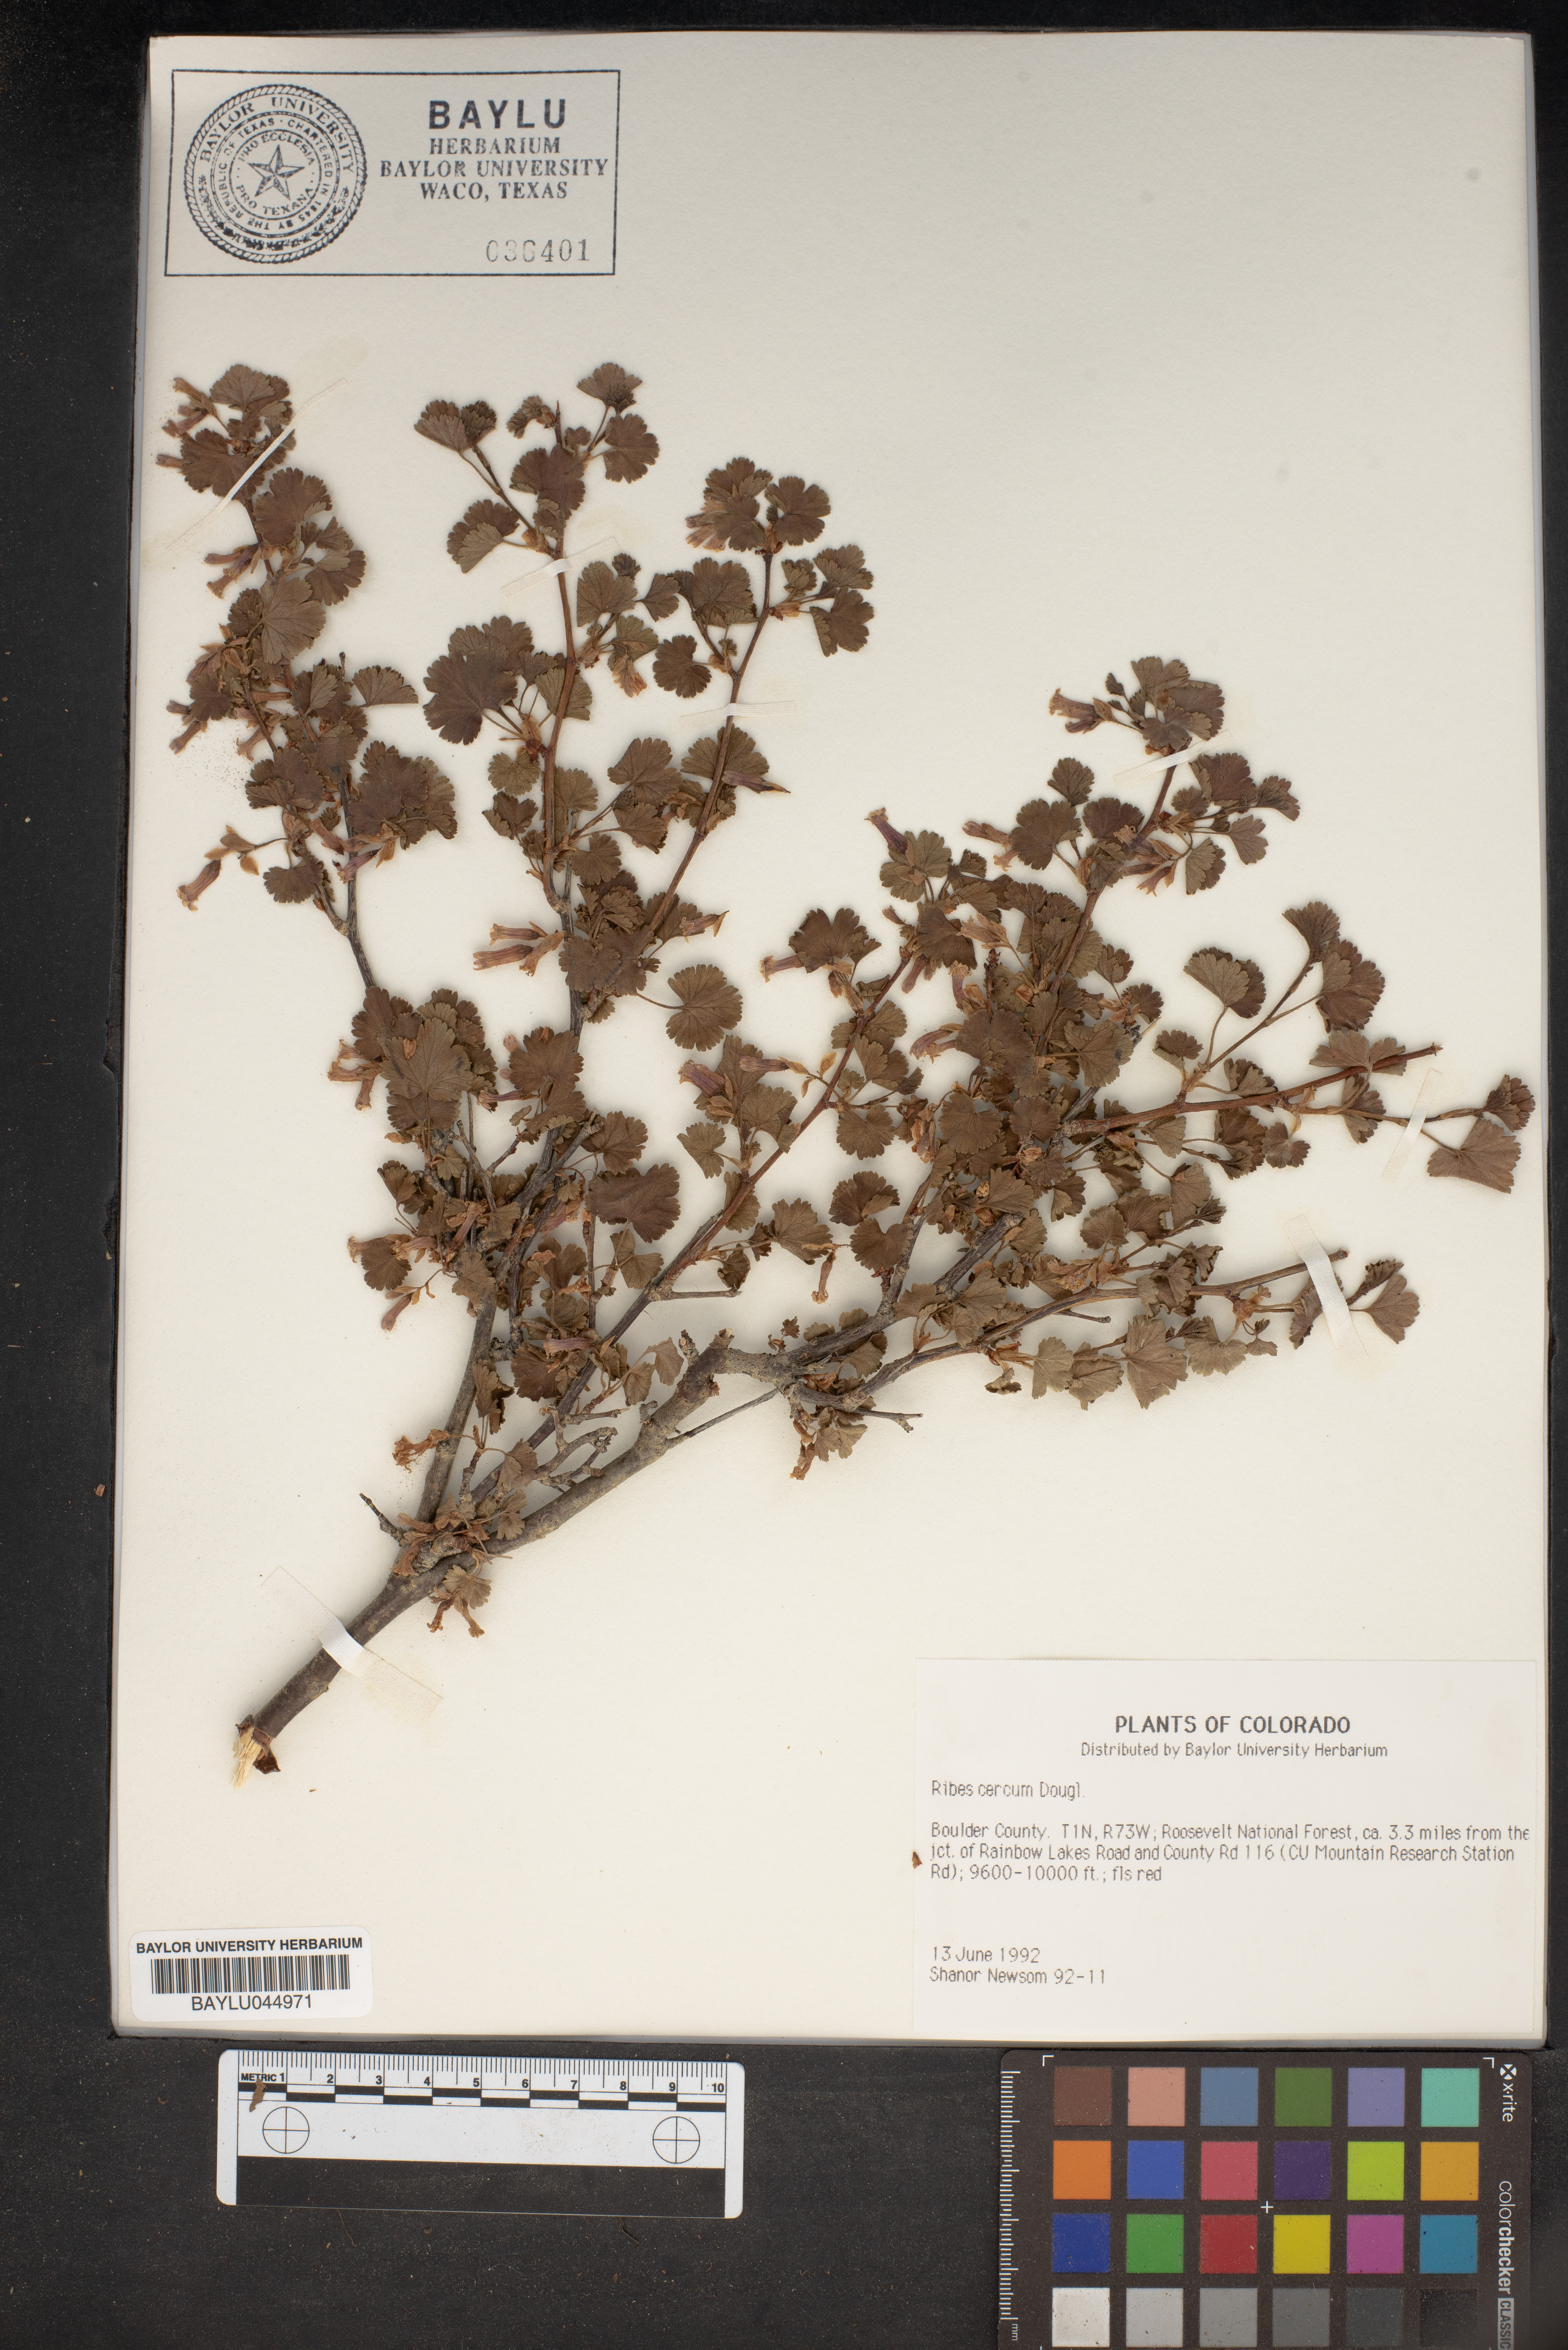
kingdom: Plantae
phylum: Tracheophyta
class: Magnoliopsida
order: Saxifragales
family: Grossulariaceae
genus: Ribes
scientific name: Ribes cereum
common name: Wax currant
